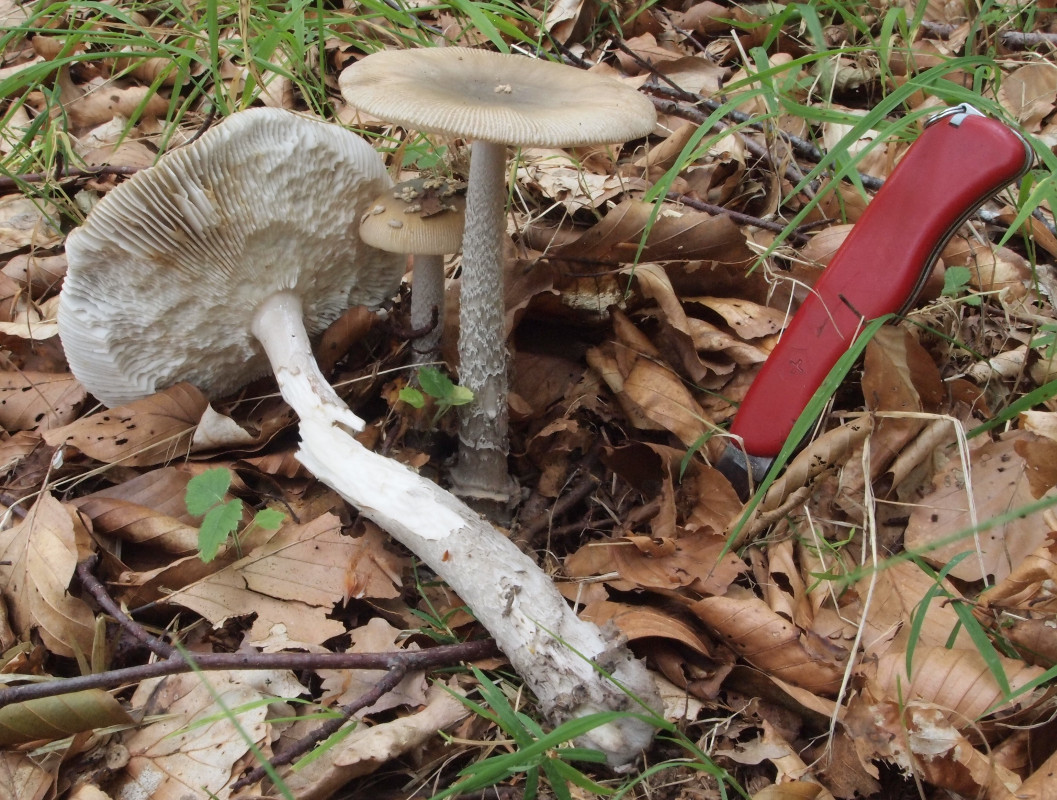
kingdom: Fungi
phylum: Basidiomycota
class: Agaricomycetes
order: Agaricales
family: Amanitaceae
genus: Amanita
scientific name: Amanita ceciliae
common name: stor kam-fluesvamp
